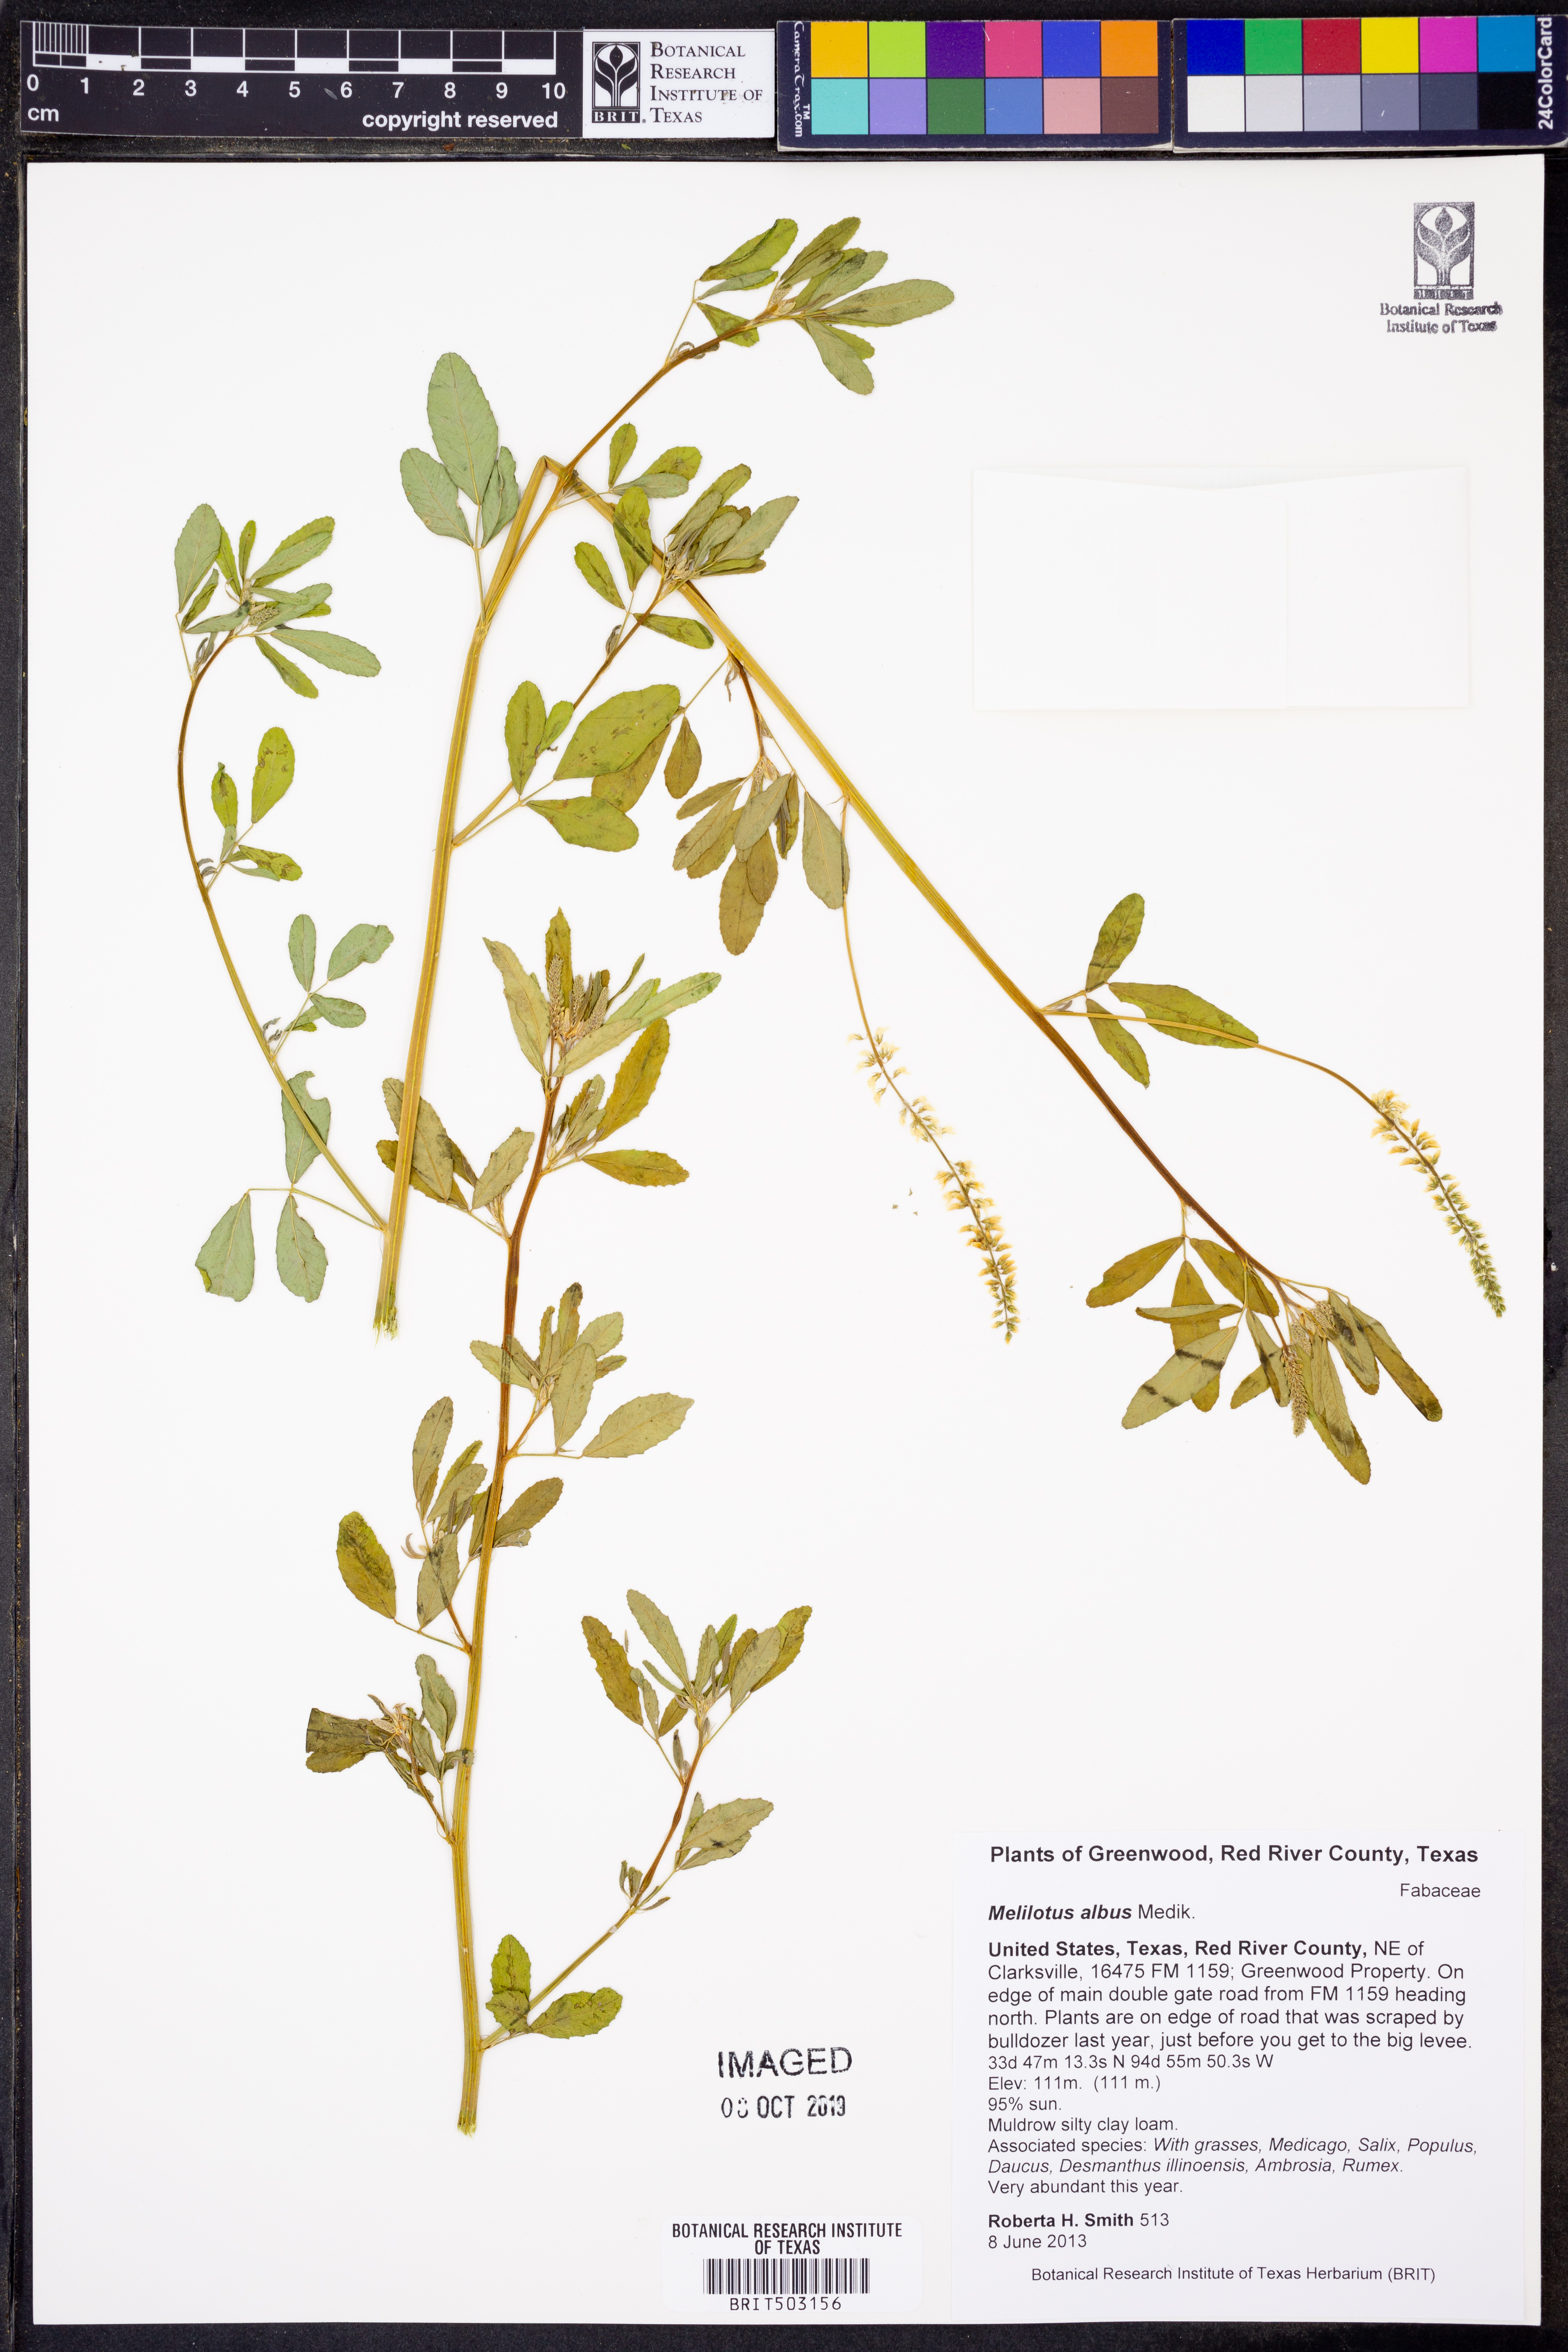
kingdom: Plantae
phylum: Tracheophyta
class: Magnoliopsida
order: Fabales
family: Fabaceae
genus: Melilotus
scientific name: Melilotus albus
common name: White melilot
